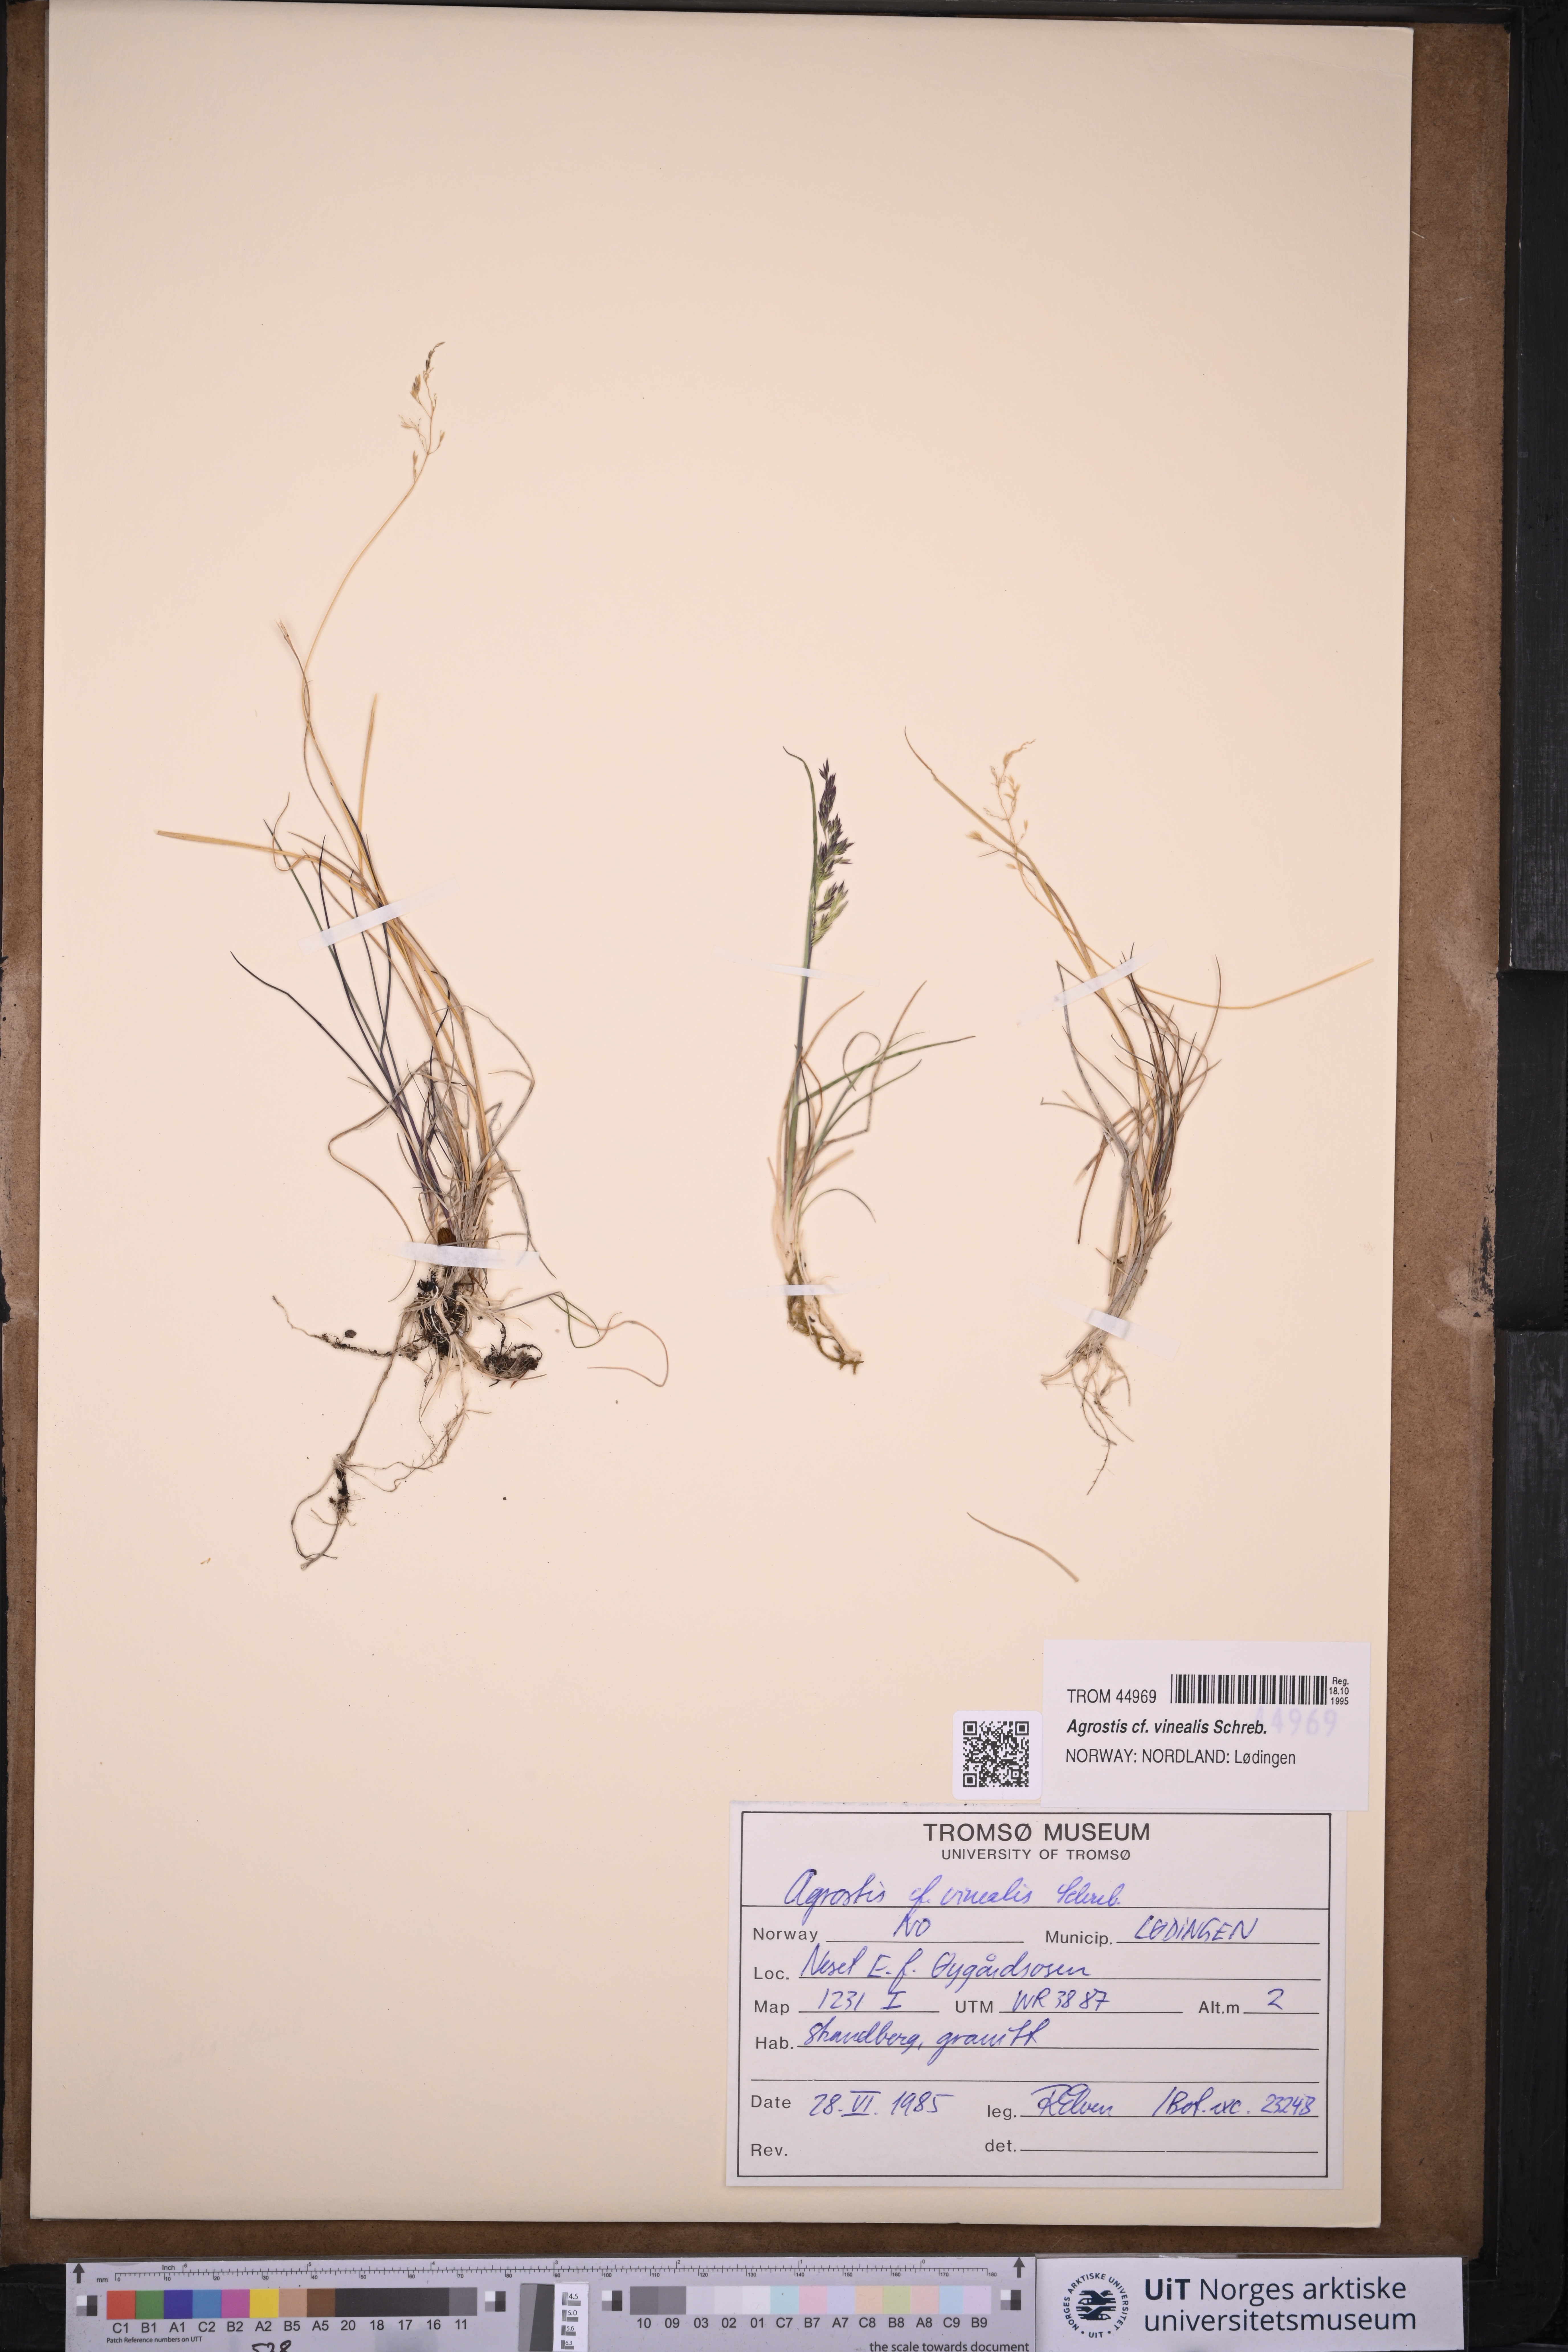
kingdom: Plantae
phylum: Tracheophyta
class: Liliopsida
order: Poales
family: Poaceae
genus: Agrostis
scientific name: Agrostis vinealis
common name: Brown bent
